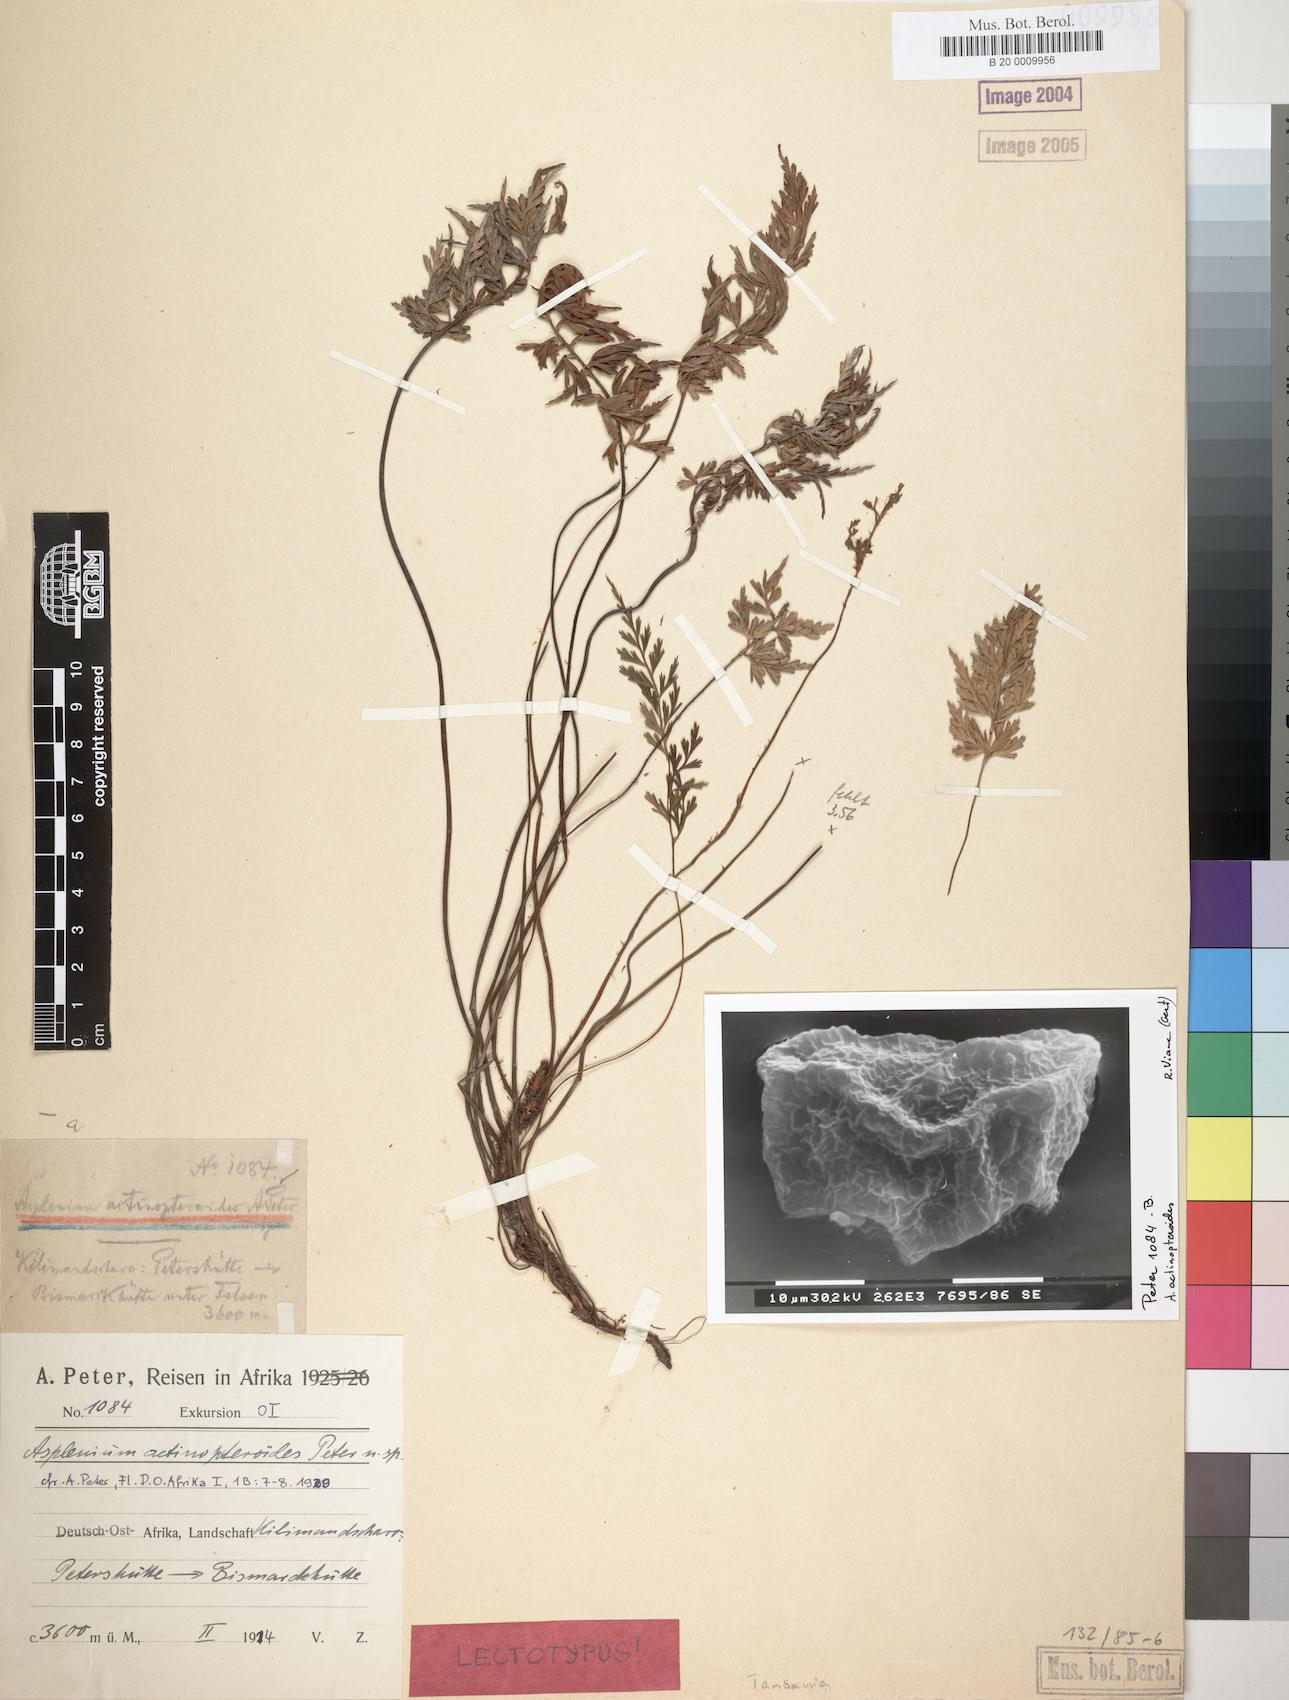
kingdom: Plantae
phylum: Tracheophyta
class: Polypodiopsida
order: Polypodiales
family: Aspleniaceae
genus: Asplenium
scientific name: Asplenium actiniopteroides
